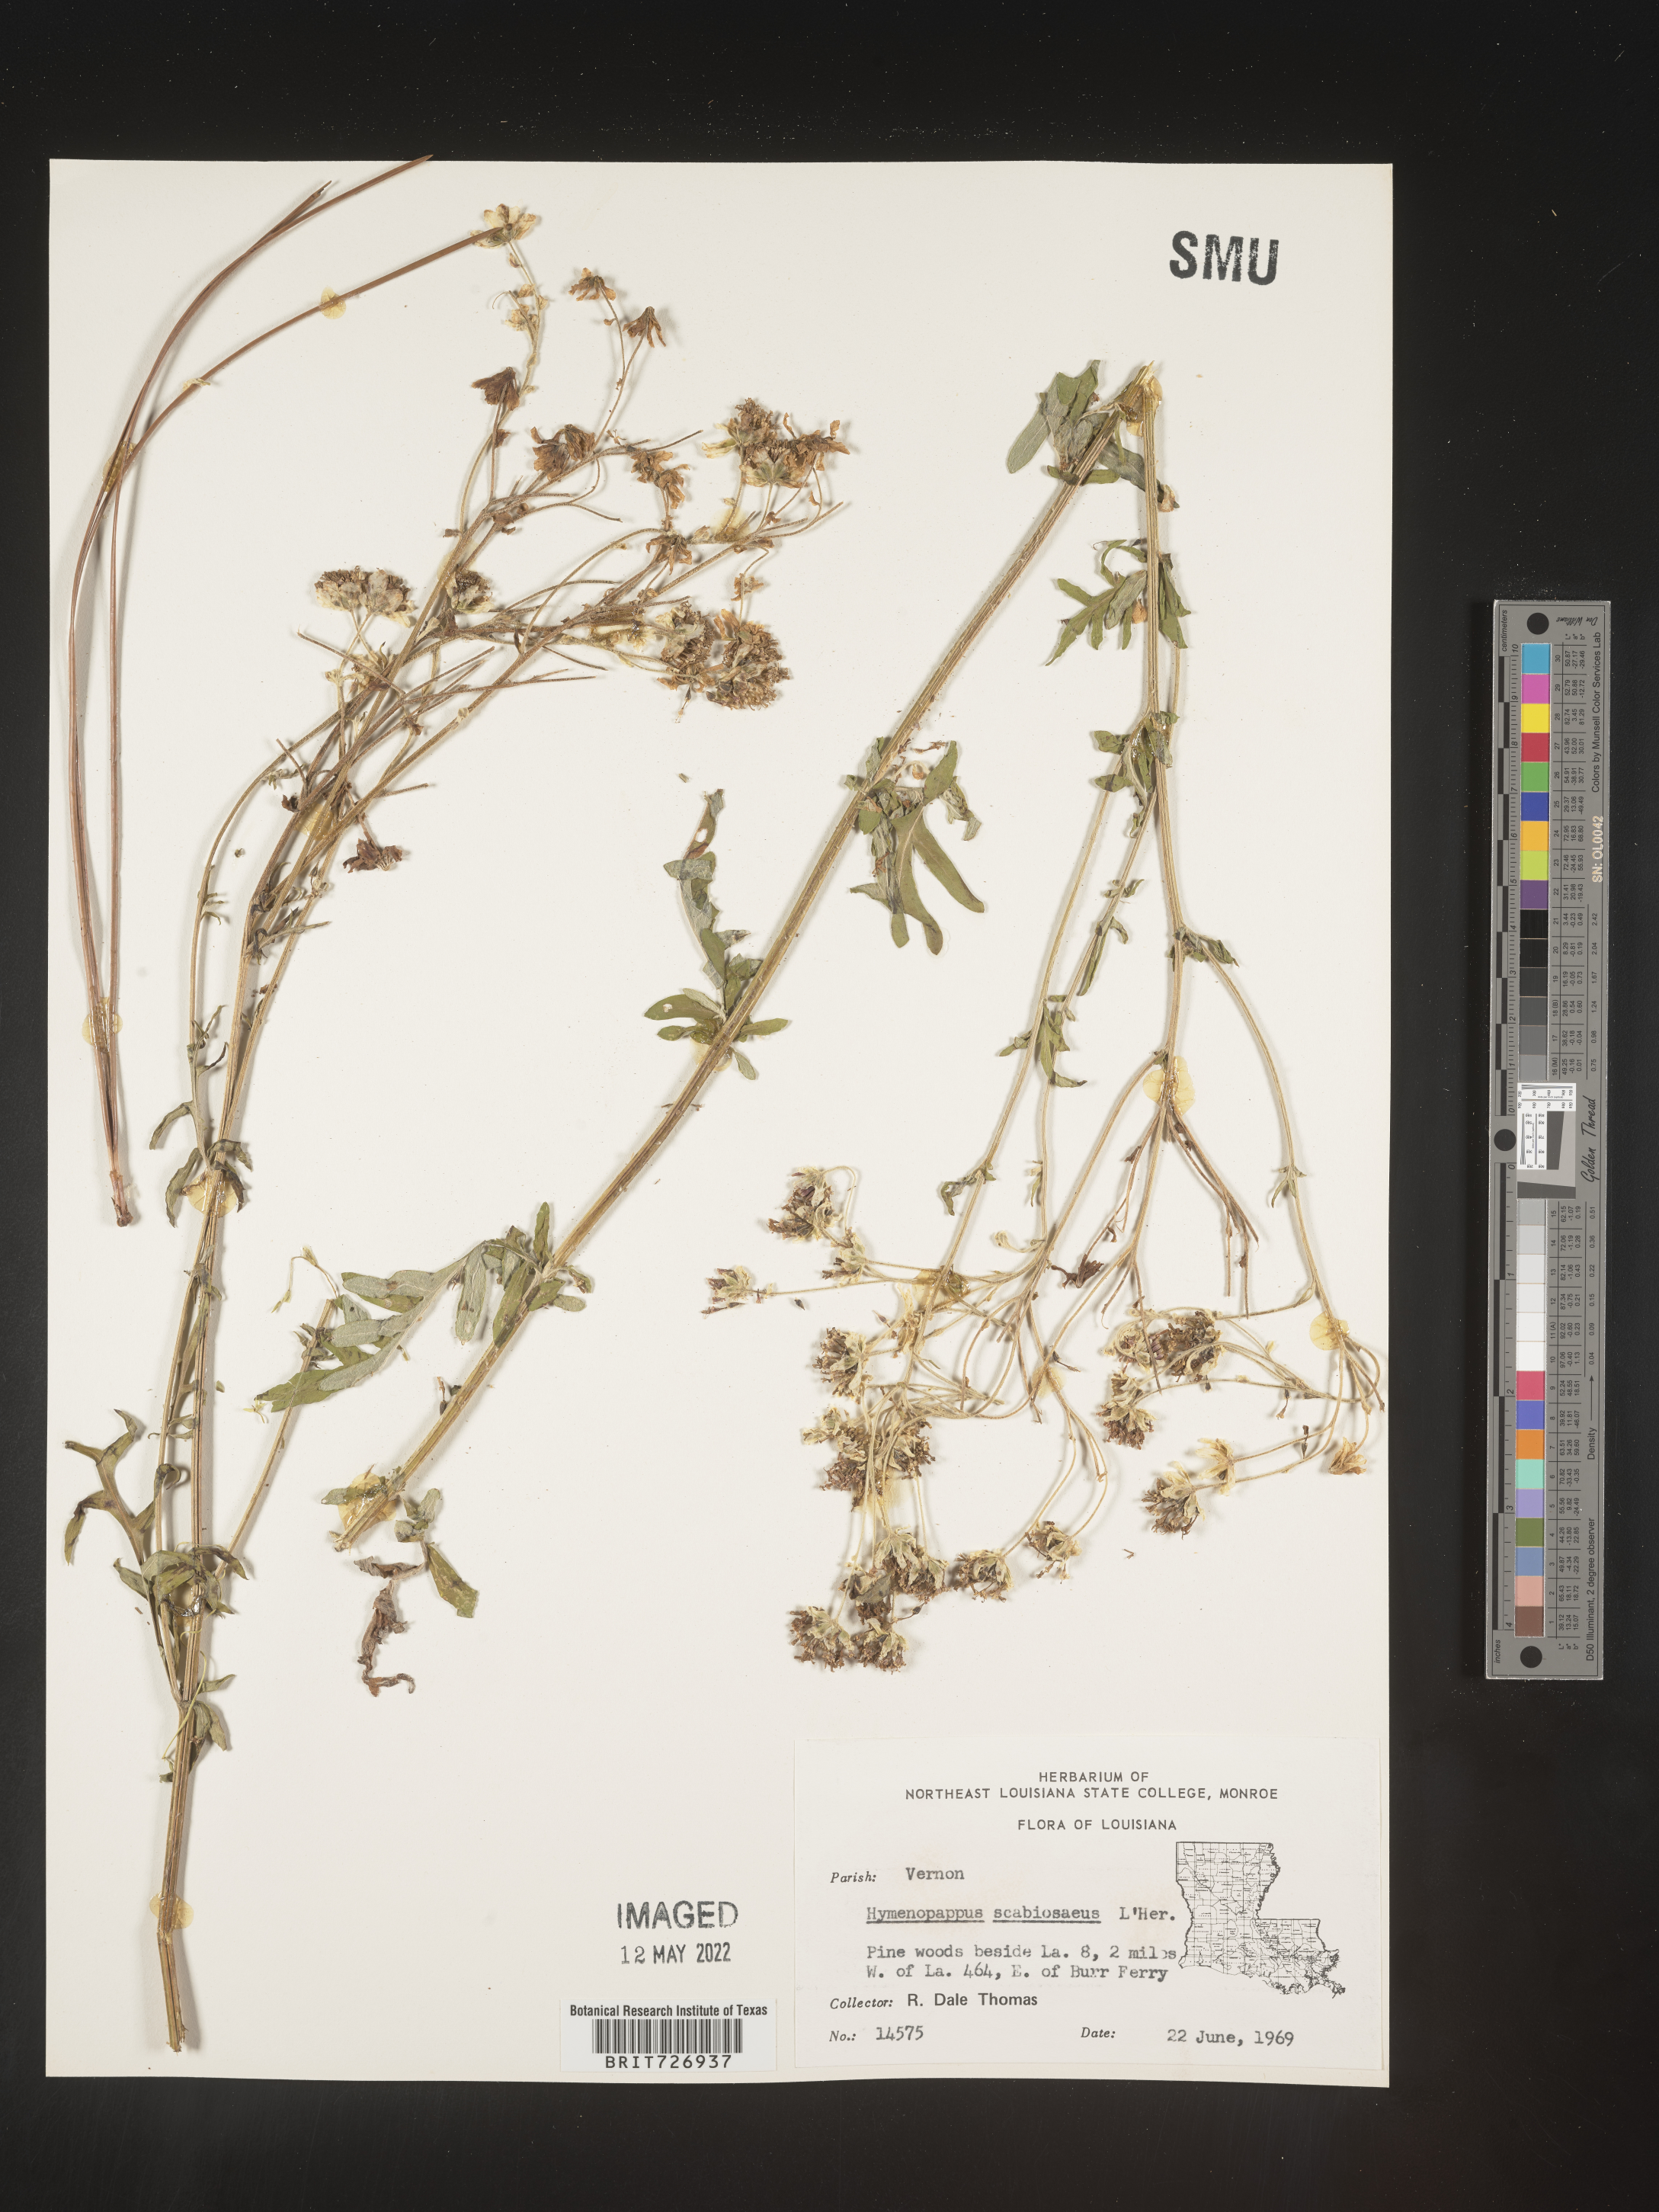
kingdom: Plantae
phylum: Tracheophyta
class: Magnoliopsida
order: Asterales
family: Asteraceae
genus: Hymenopappus
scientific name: Hymenopappus scabiosaeus
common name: Carolina woollywhite
